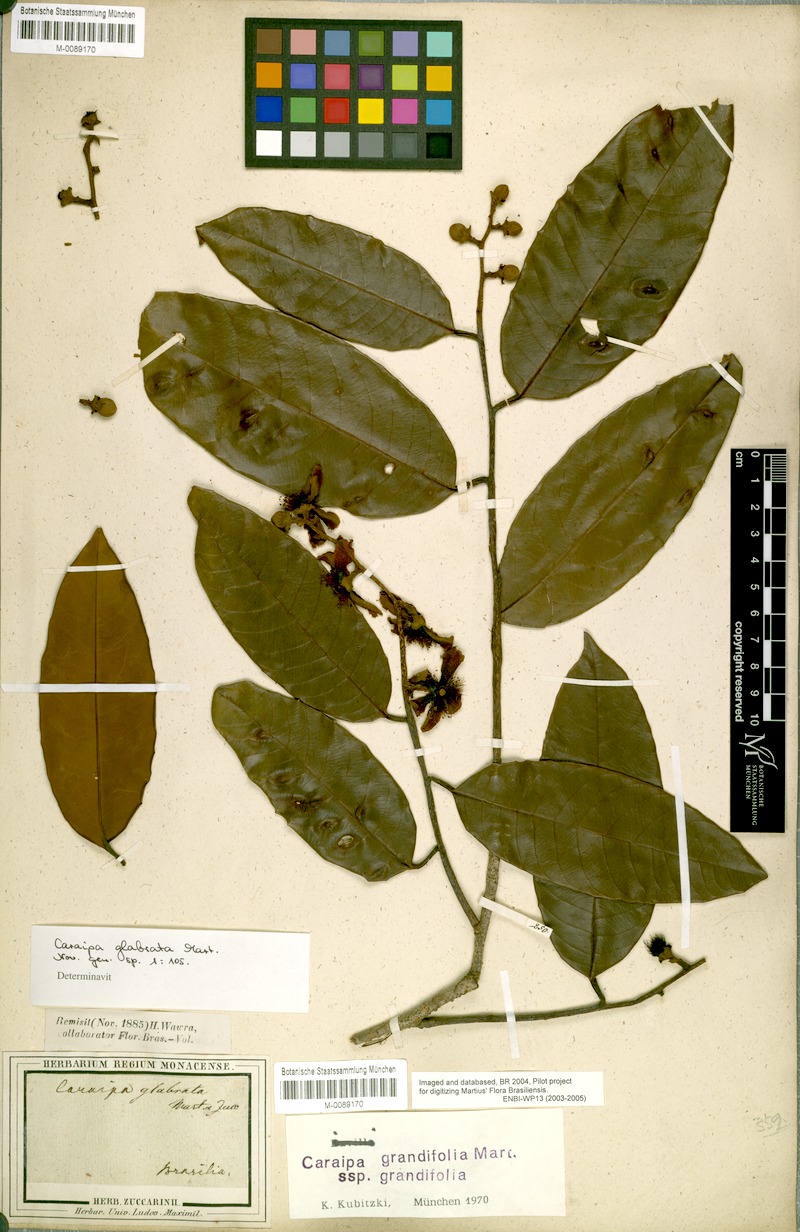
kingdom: Plantae
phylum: Tracheophyta
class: Magnoliopsida
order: Malpighiales
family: Calophyllaceae
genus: Caraipa
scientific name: Caraipa grandifolia
